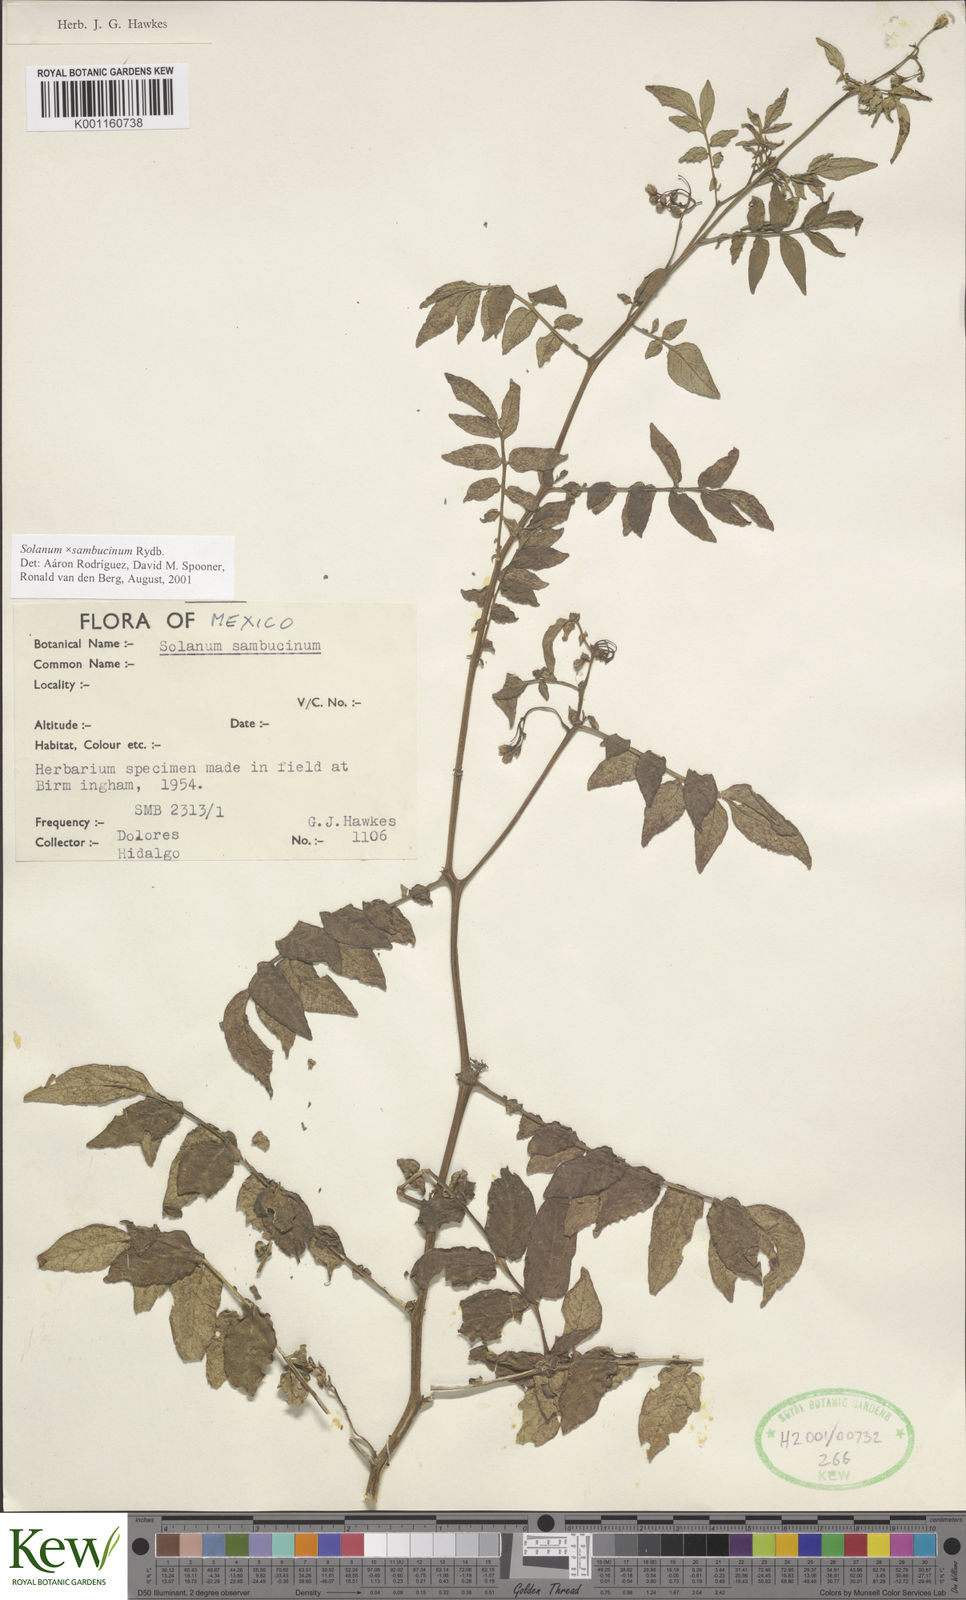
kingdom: Plantae
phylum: Tracheophyta
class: Magnoliopsida
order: Solanales
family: Solanaceae
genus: Solanum
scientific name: Solanum sambucinum
